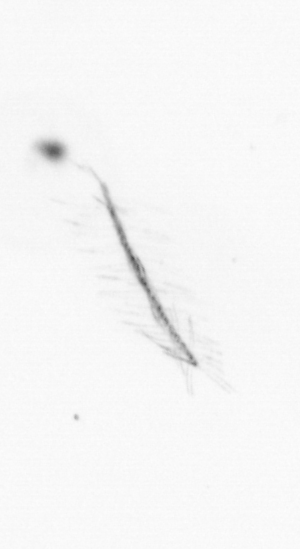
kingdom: Chromista
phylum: Ochrophyta
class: Bacillariophyceae
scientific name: Bacillariophyceae
